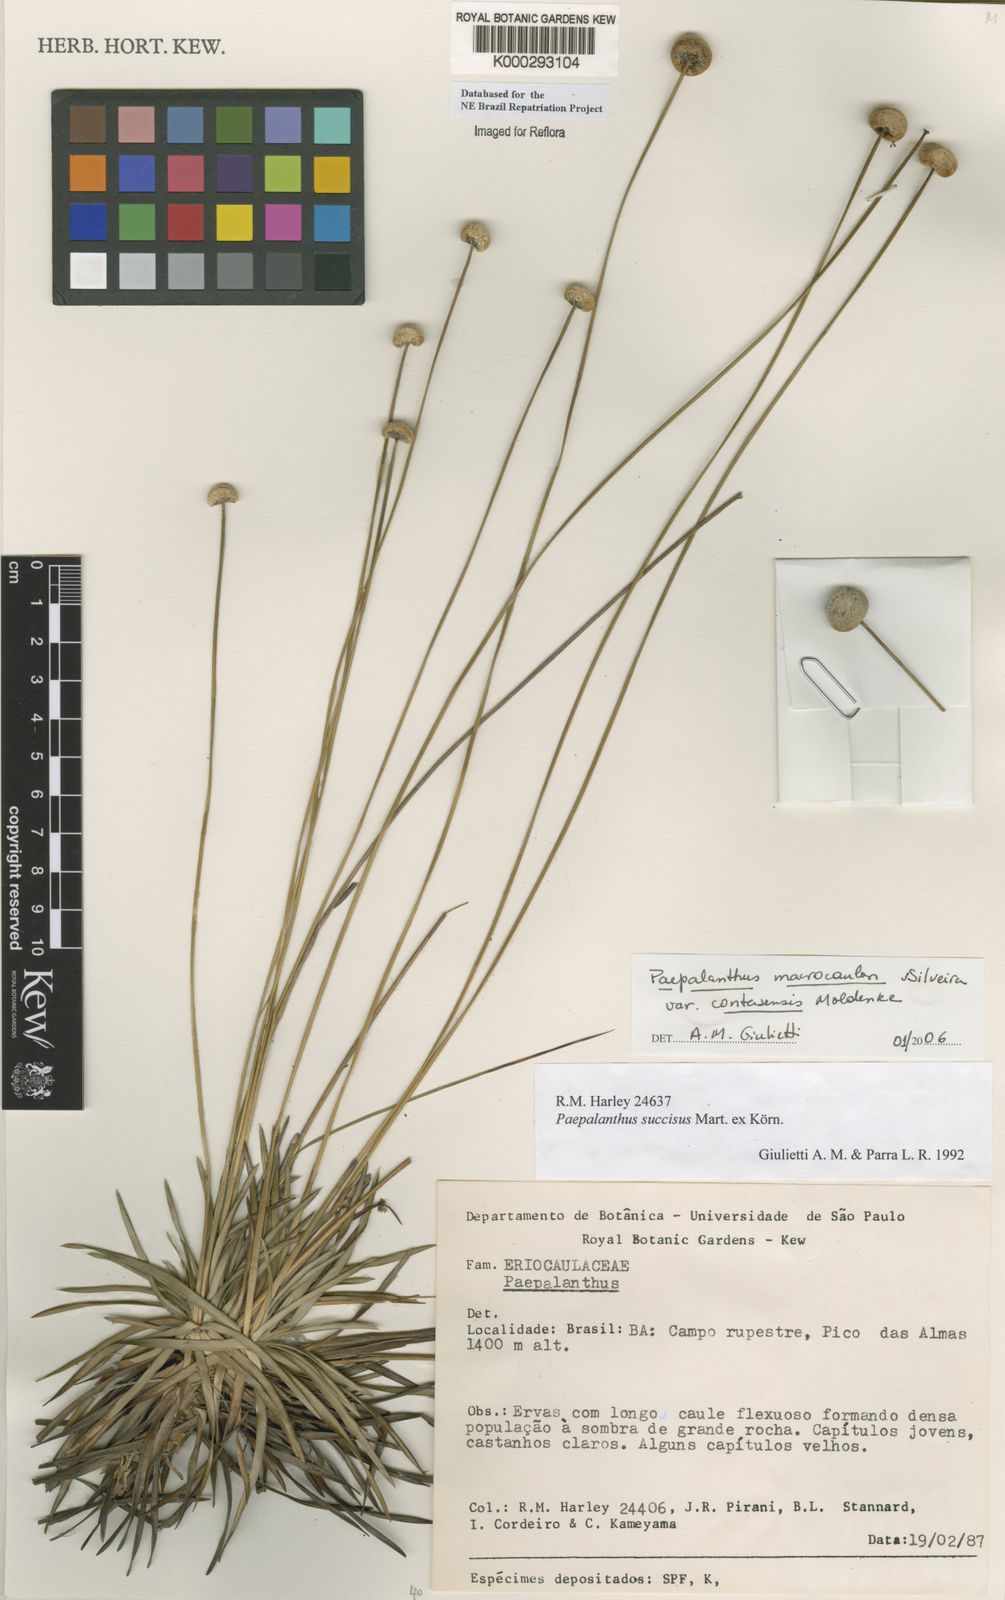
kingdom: Plantae
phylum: Tracheophyta
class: Liliopsida
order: Poales
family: Eriocaulaceae
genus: Paepalanthus
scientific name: Paepalanthus
